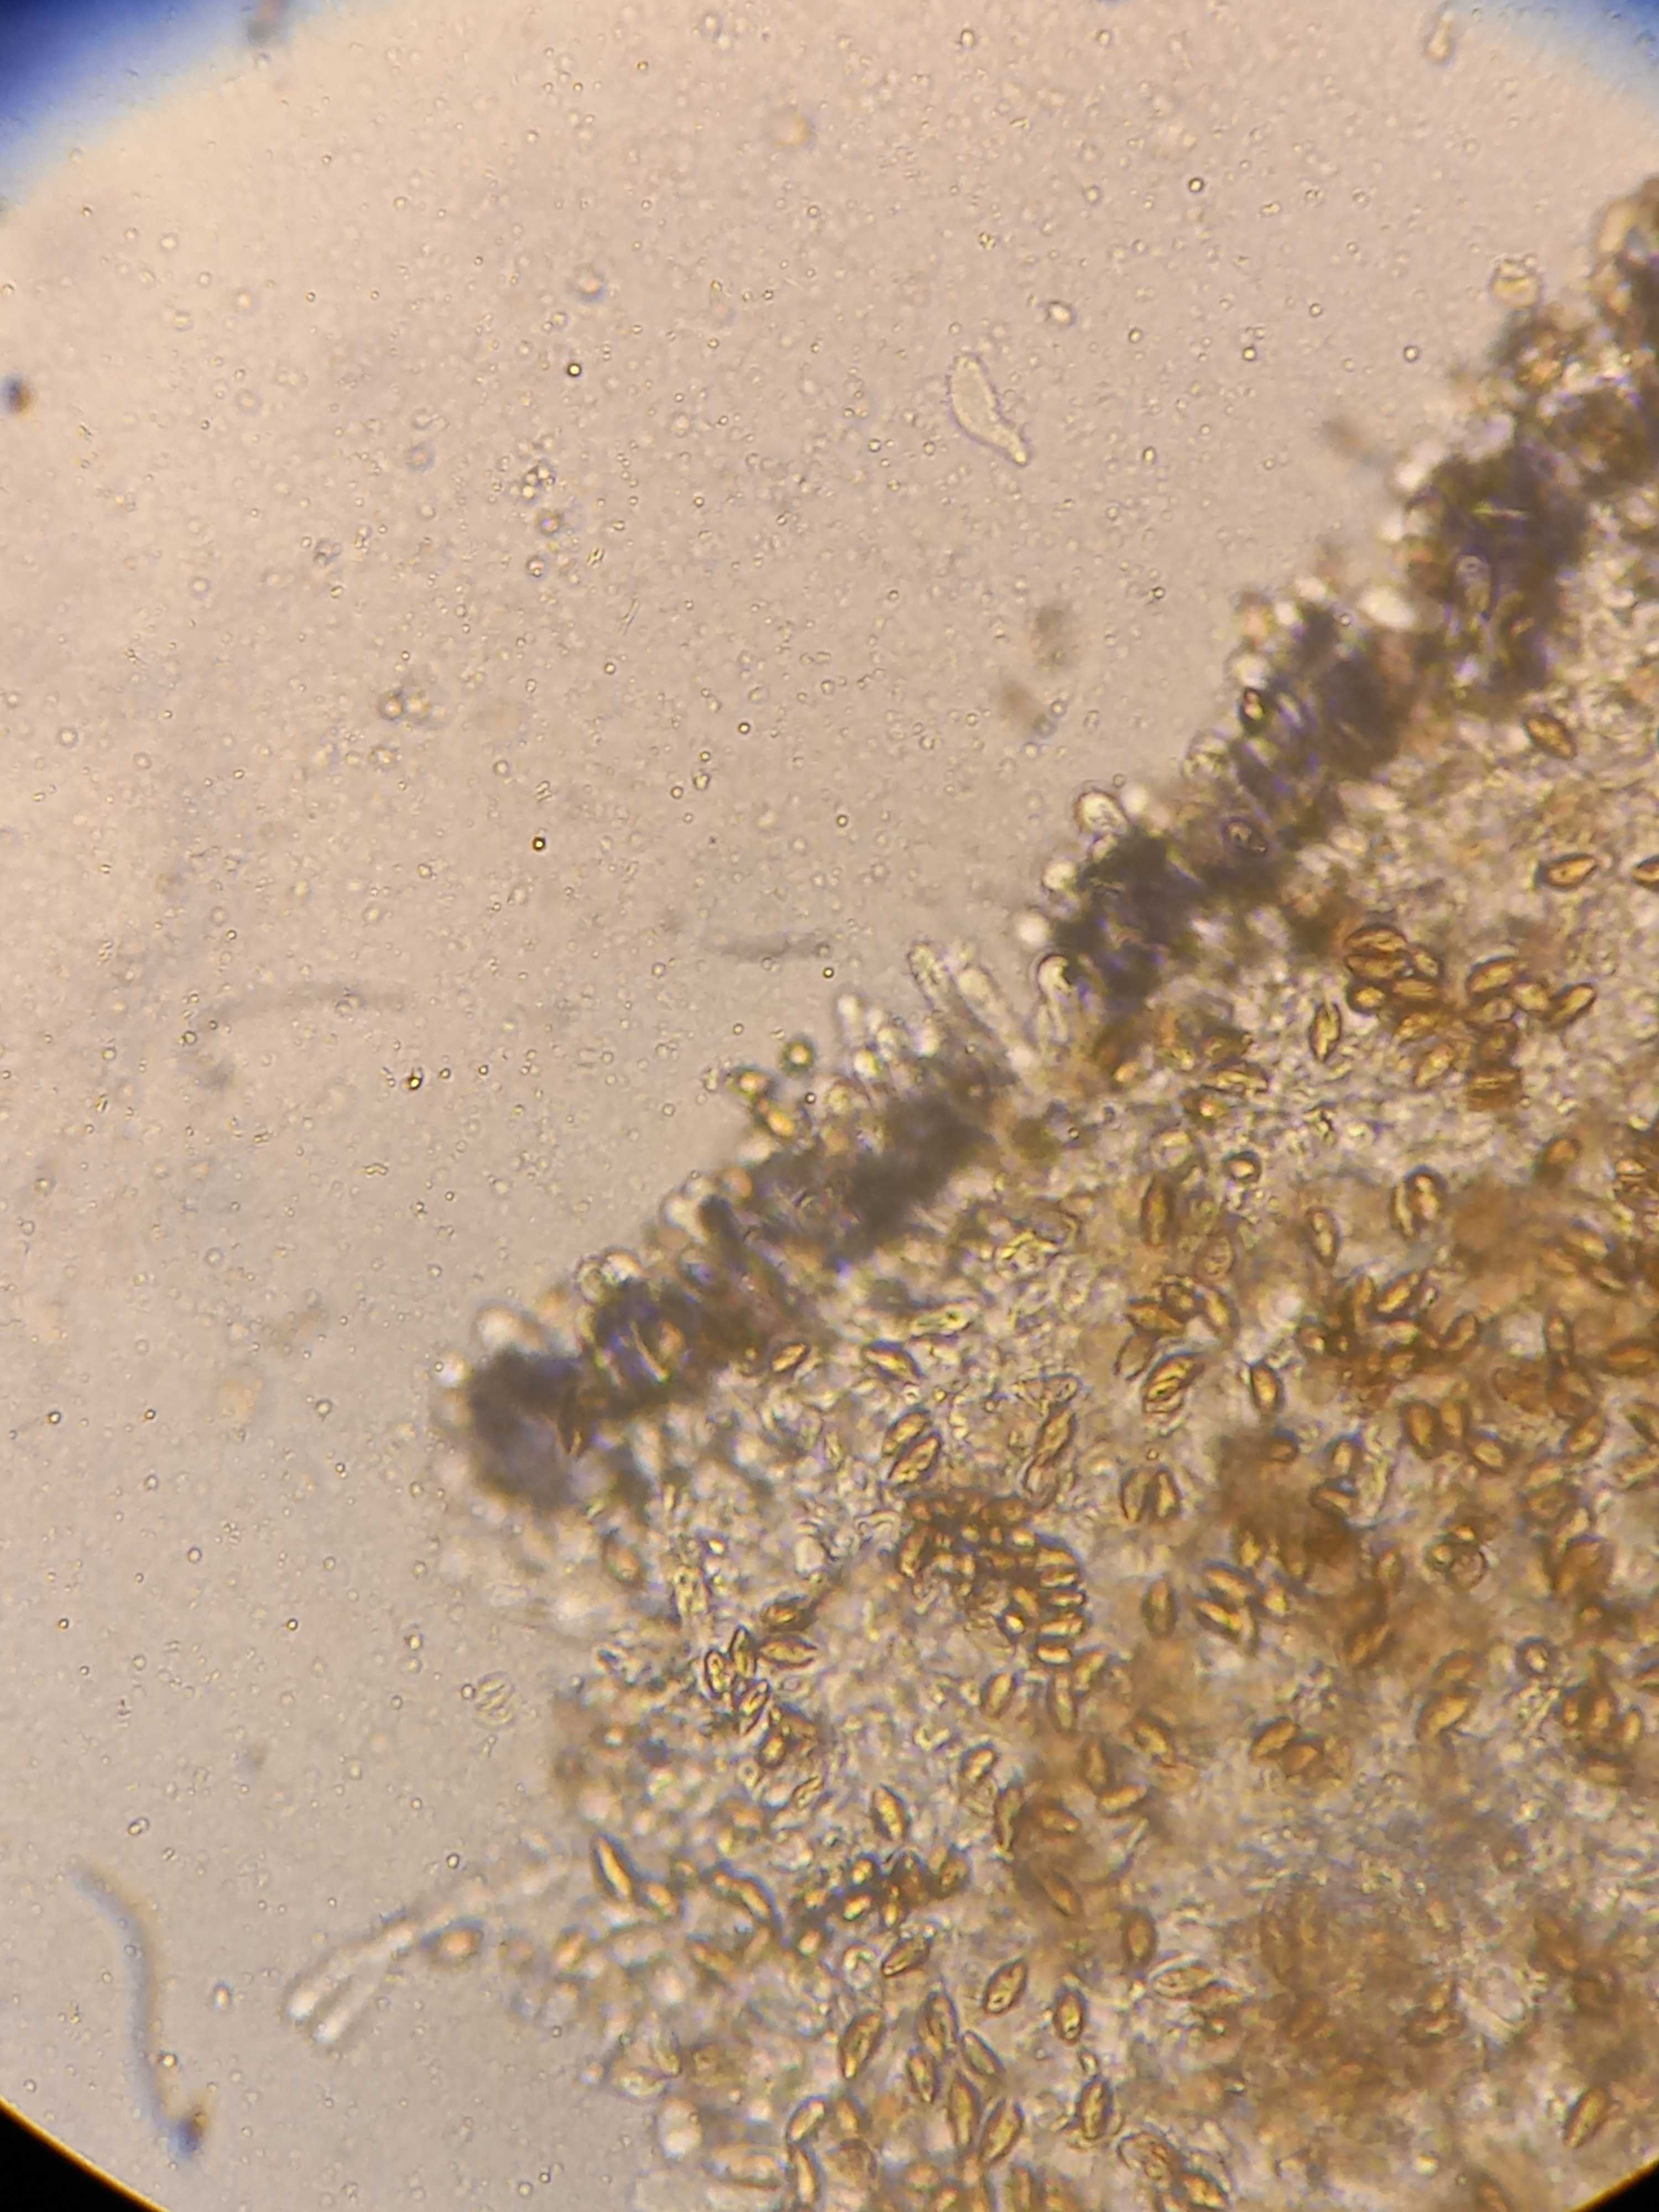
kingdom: Fungi
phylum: Basidiomycota
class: Agaricomycetes
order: Agaricales
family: Hymenogastraceae
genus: Hebeloma
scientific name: Hebeloma cavipes
